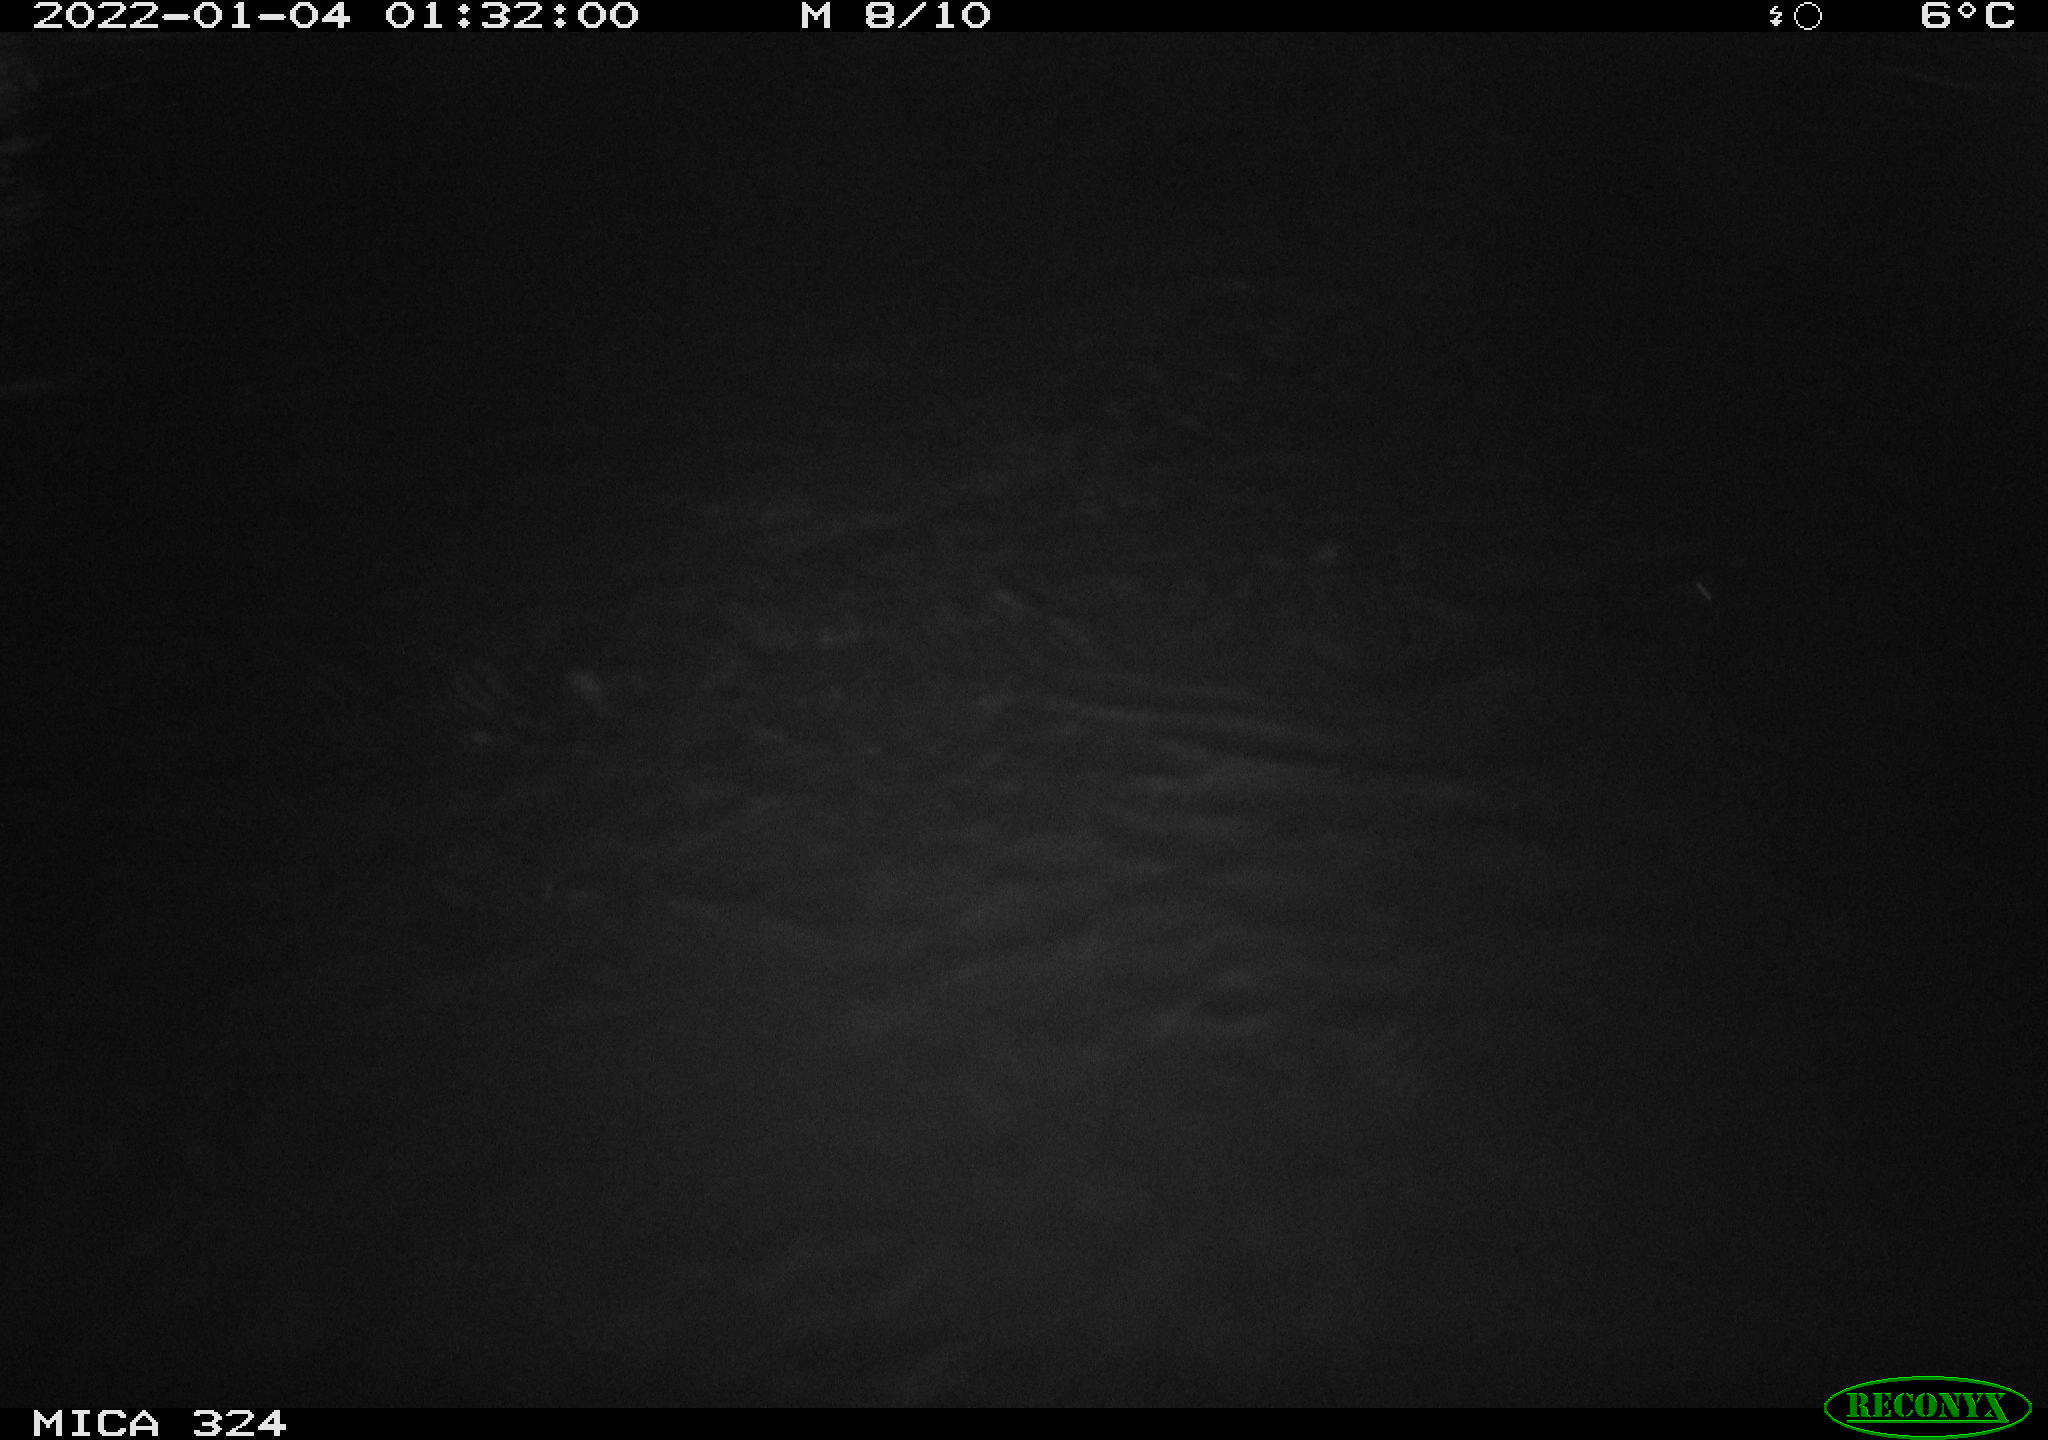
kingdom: Animalia
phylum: Chordata
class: Mammalia
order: Rodentia
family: Cricetidae
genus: Ondatra
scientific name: Ondatra zibethicus
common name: Muskrat
